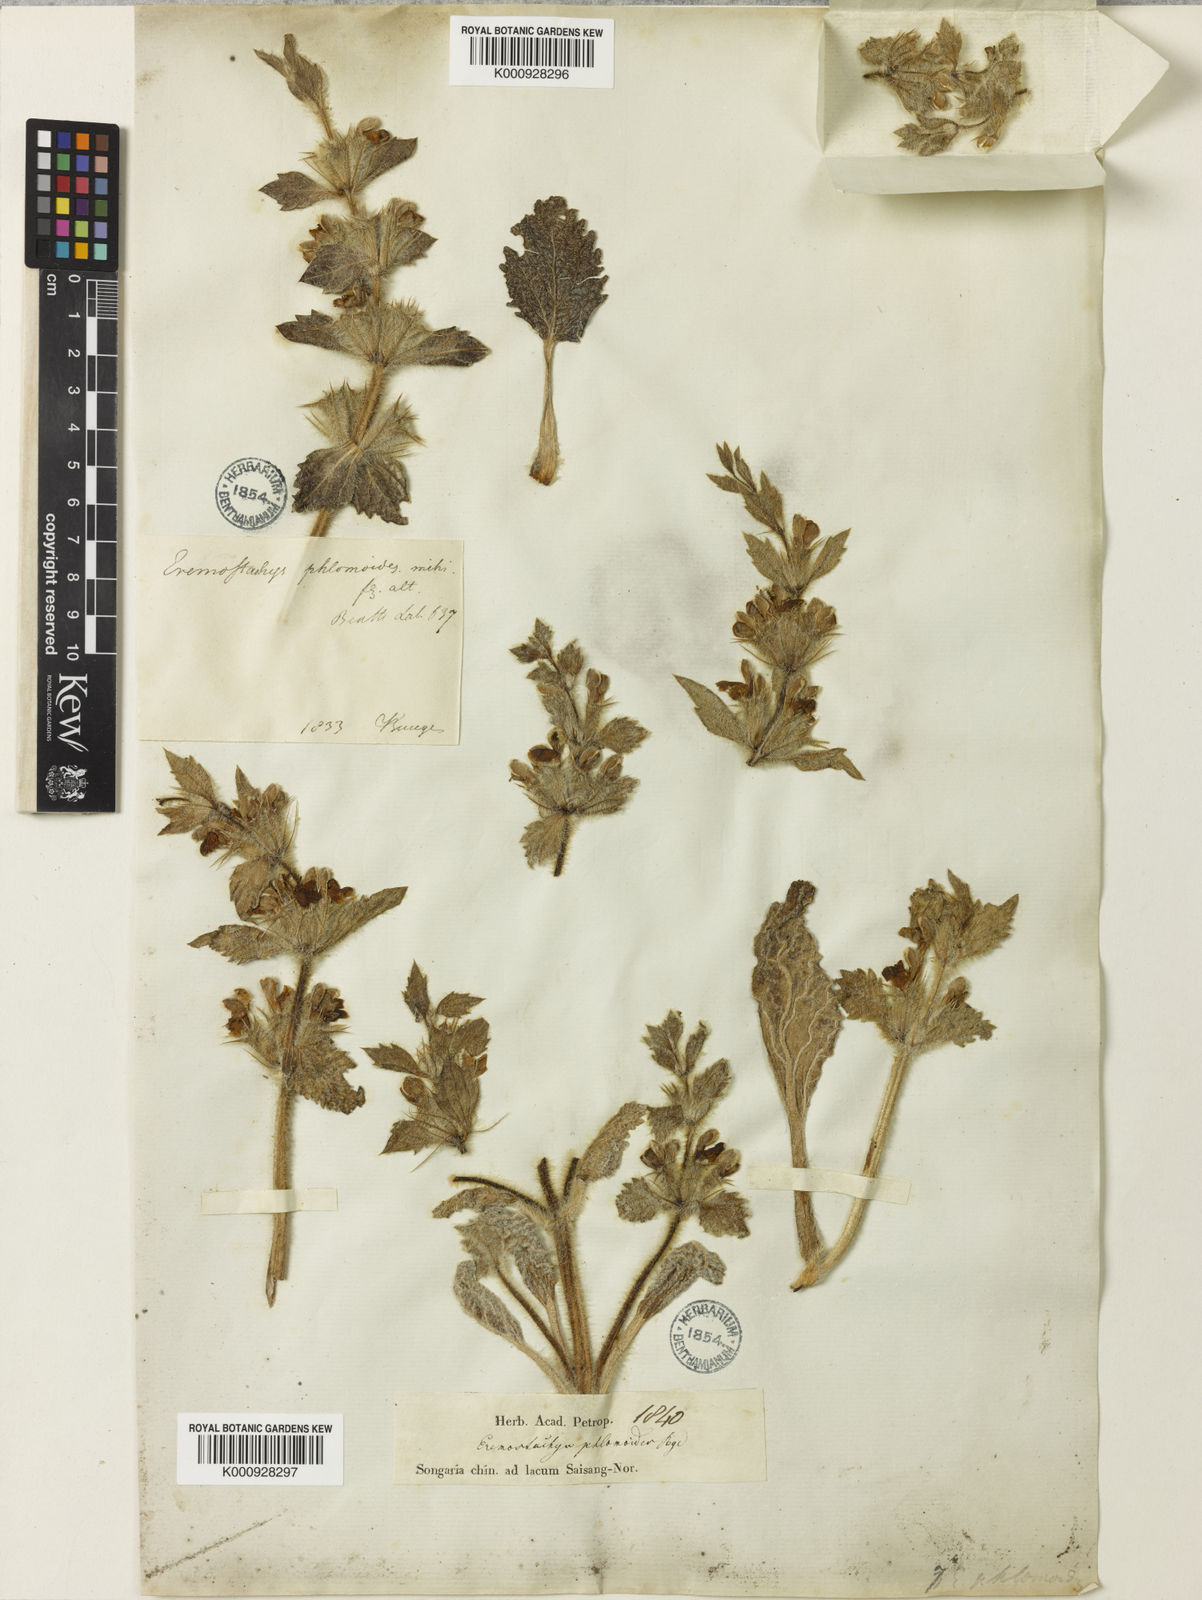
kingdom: Plantae
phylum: Tracheophyta
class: Magnoliopsida
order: Lamiales
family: Lamiaceae
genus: Phlomoides
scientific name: Phlomoides multifurcata
